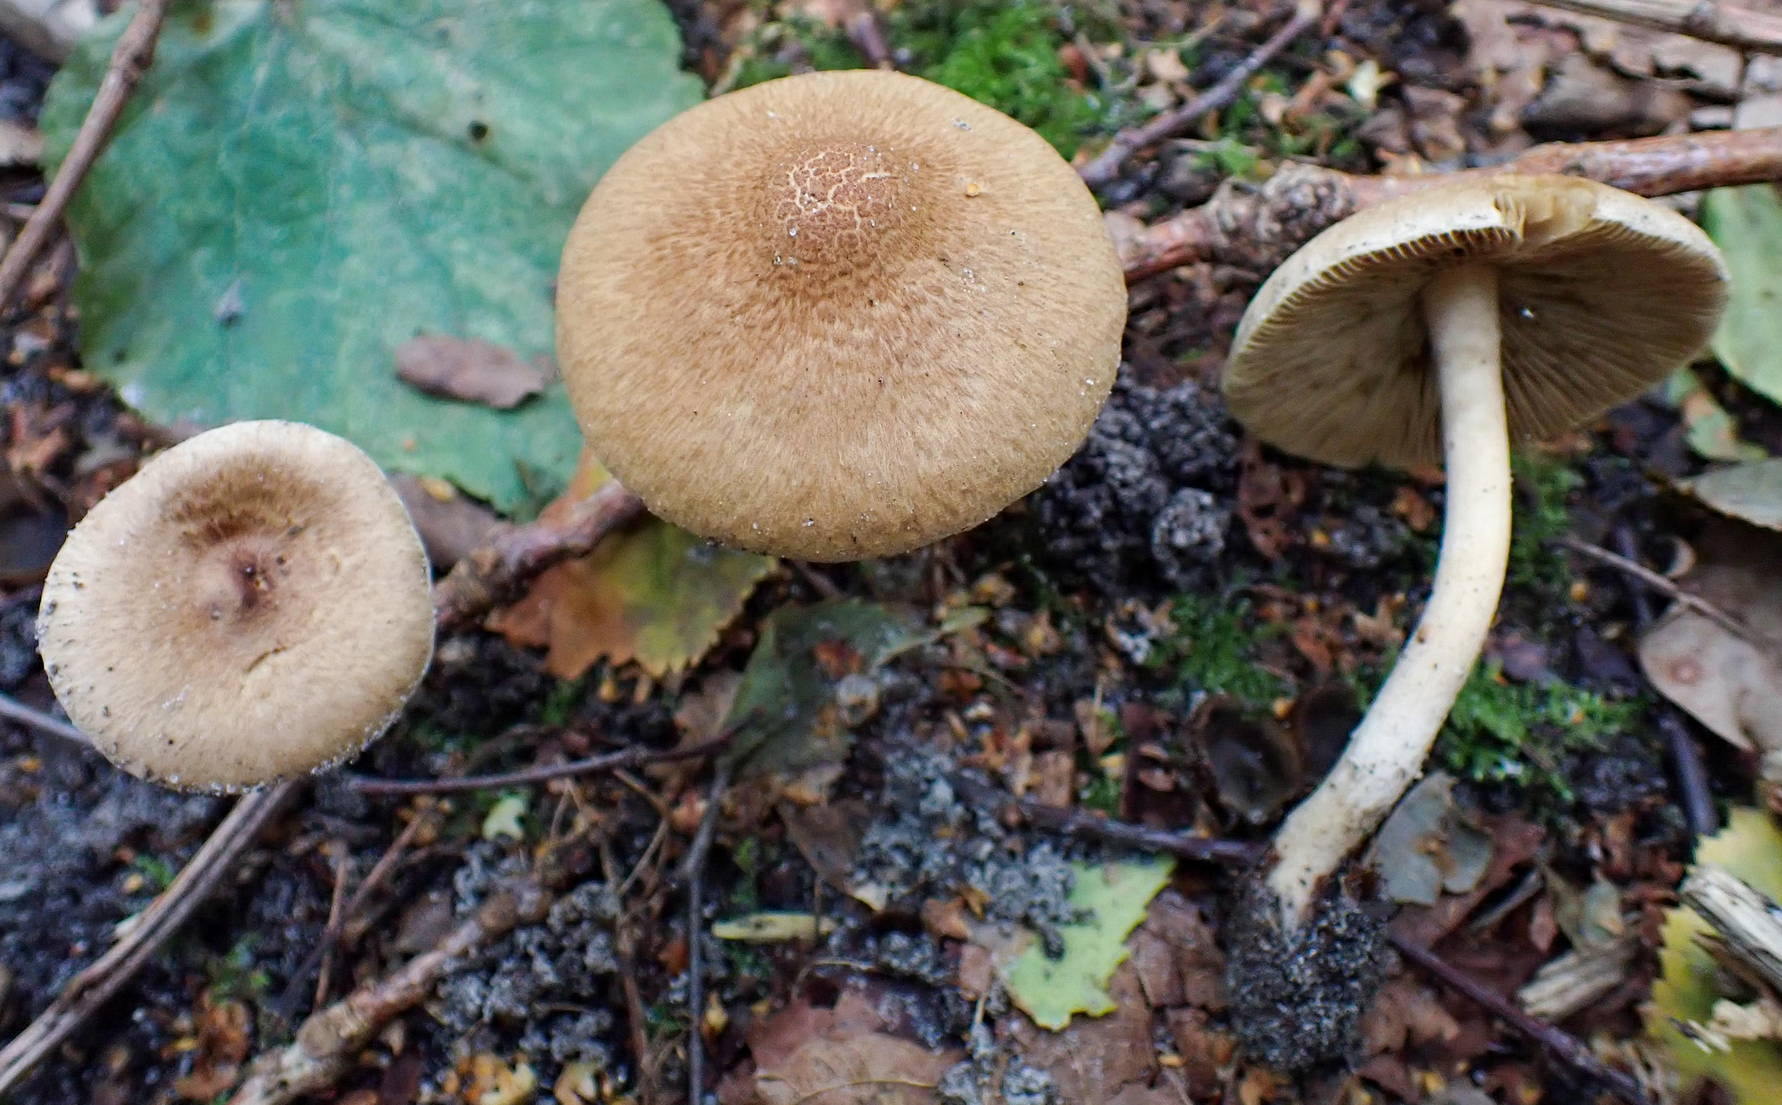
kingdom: Fungi
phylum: Basidiomycota
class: Agaricomycetes
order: Agaricales
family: Inocybaceae
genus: Inocybe
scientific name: Inocybe dulcamara
